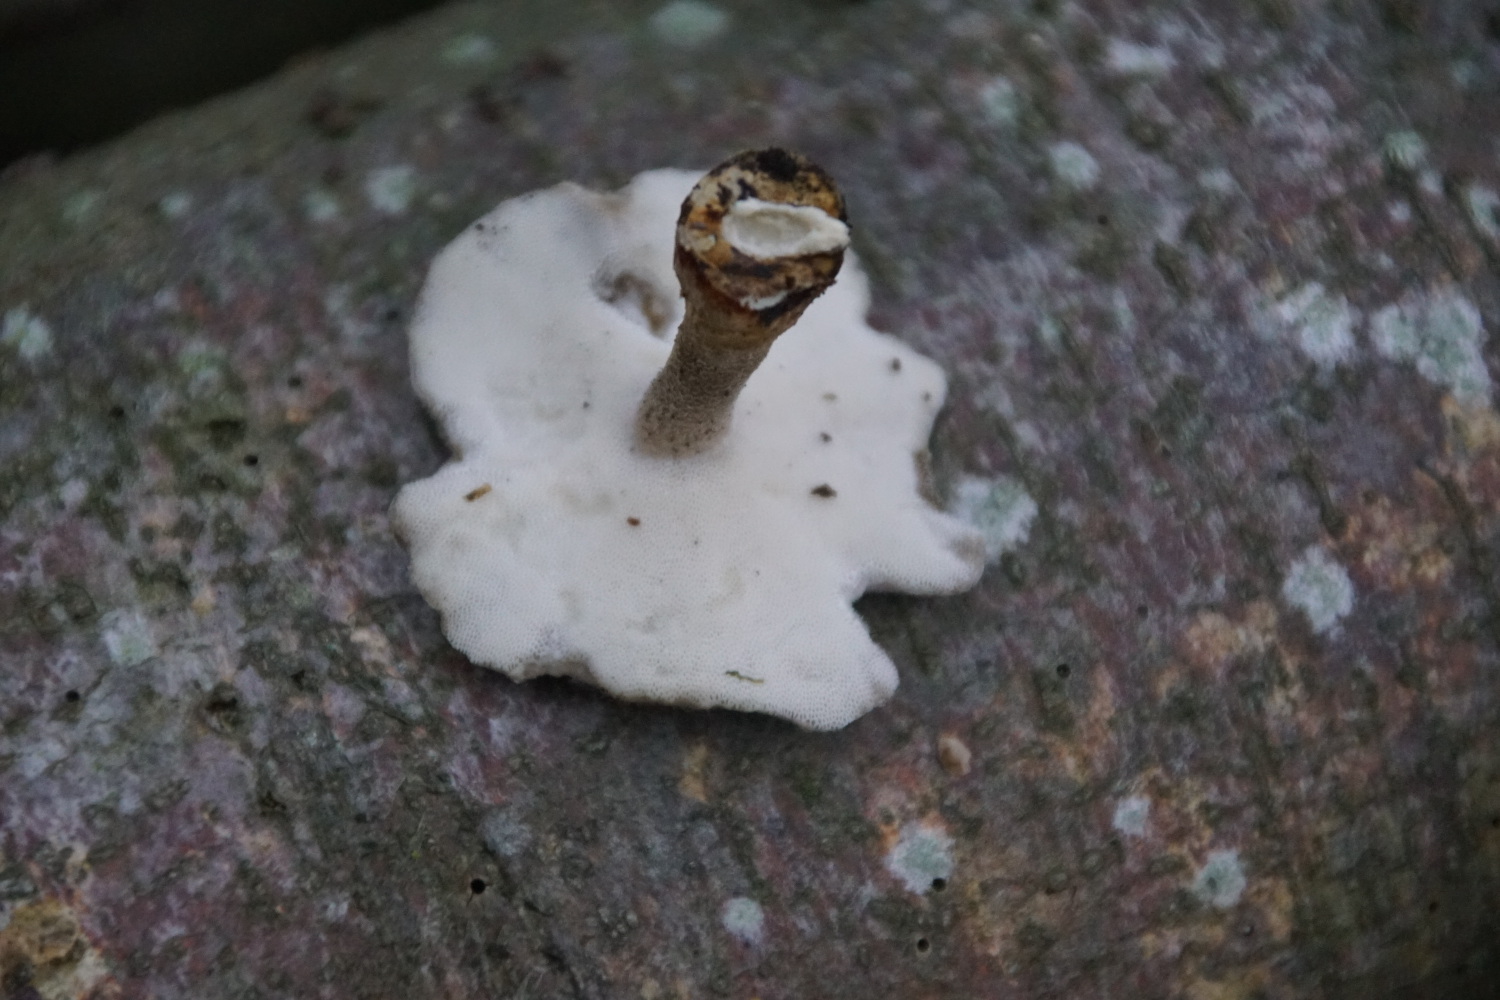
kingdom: Fungi
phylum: Basidiomycota
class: Agaricomycetes
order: Polyporales
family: Polyporaceae
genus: Lentinus
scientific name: Lentinus brumalis
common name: vinter-stilkporesvamp
